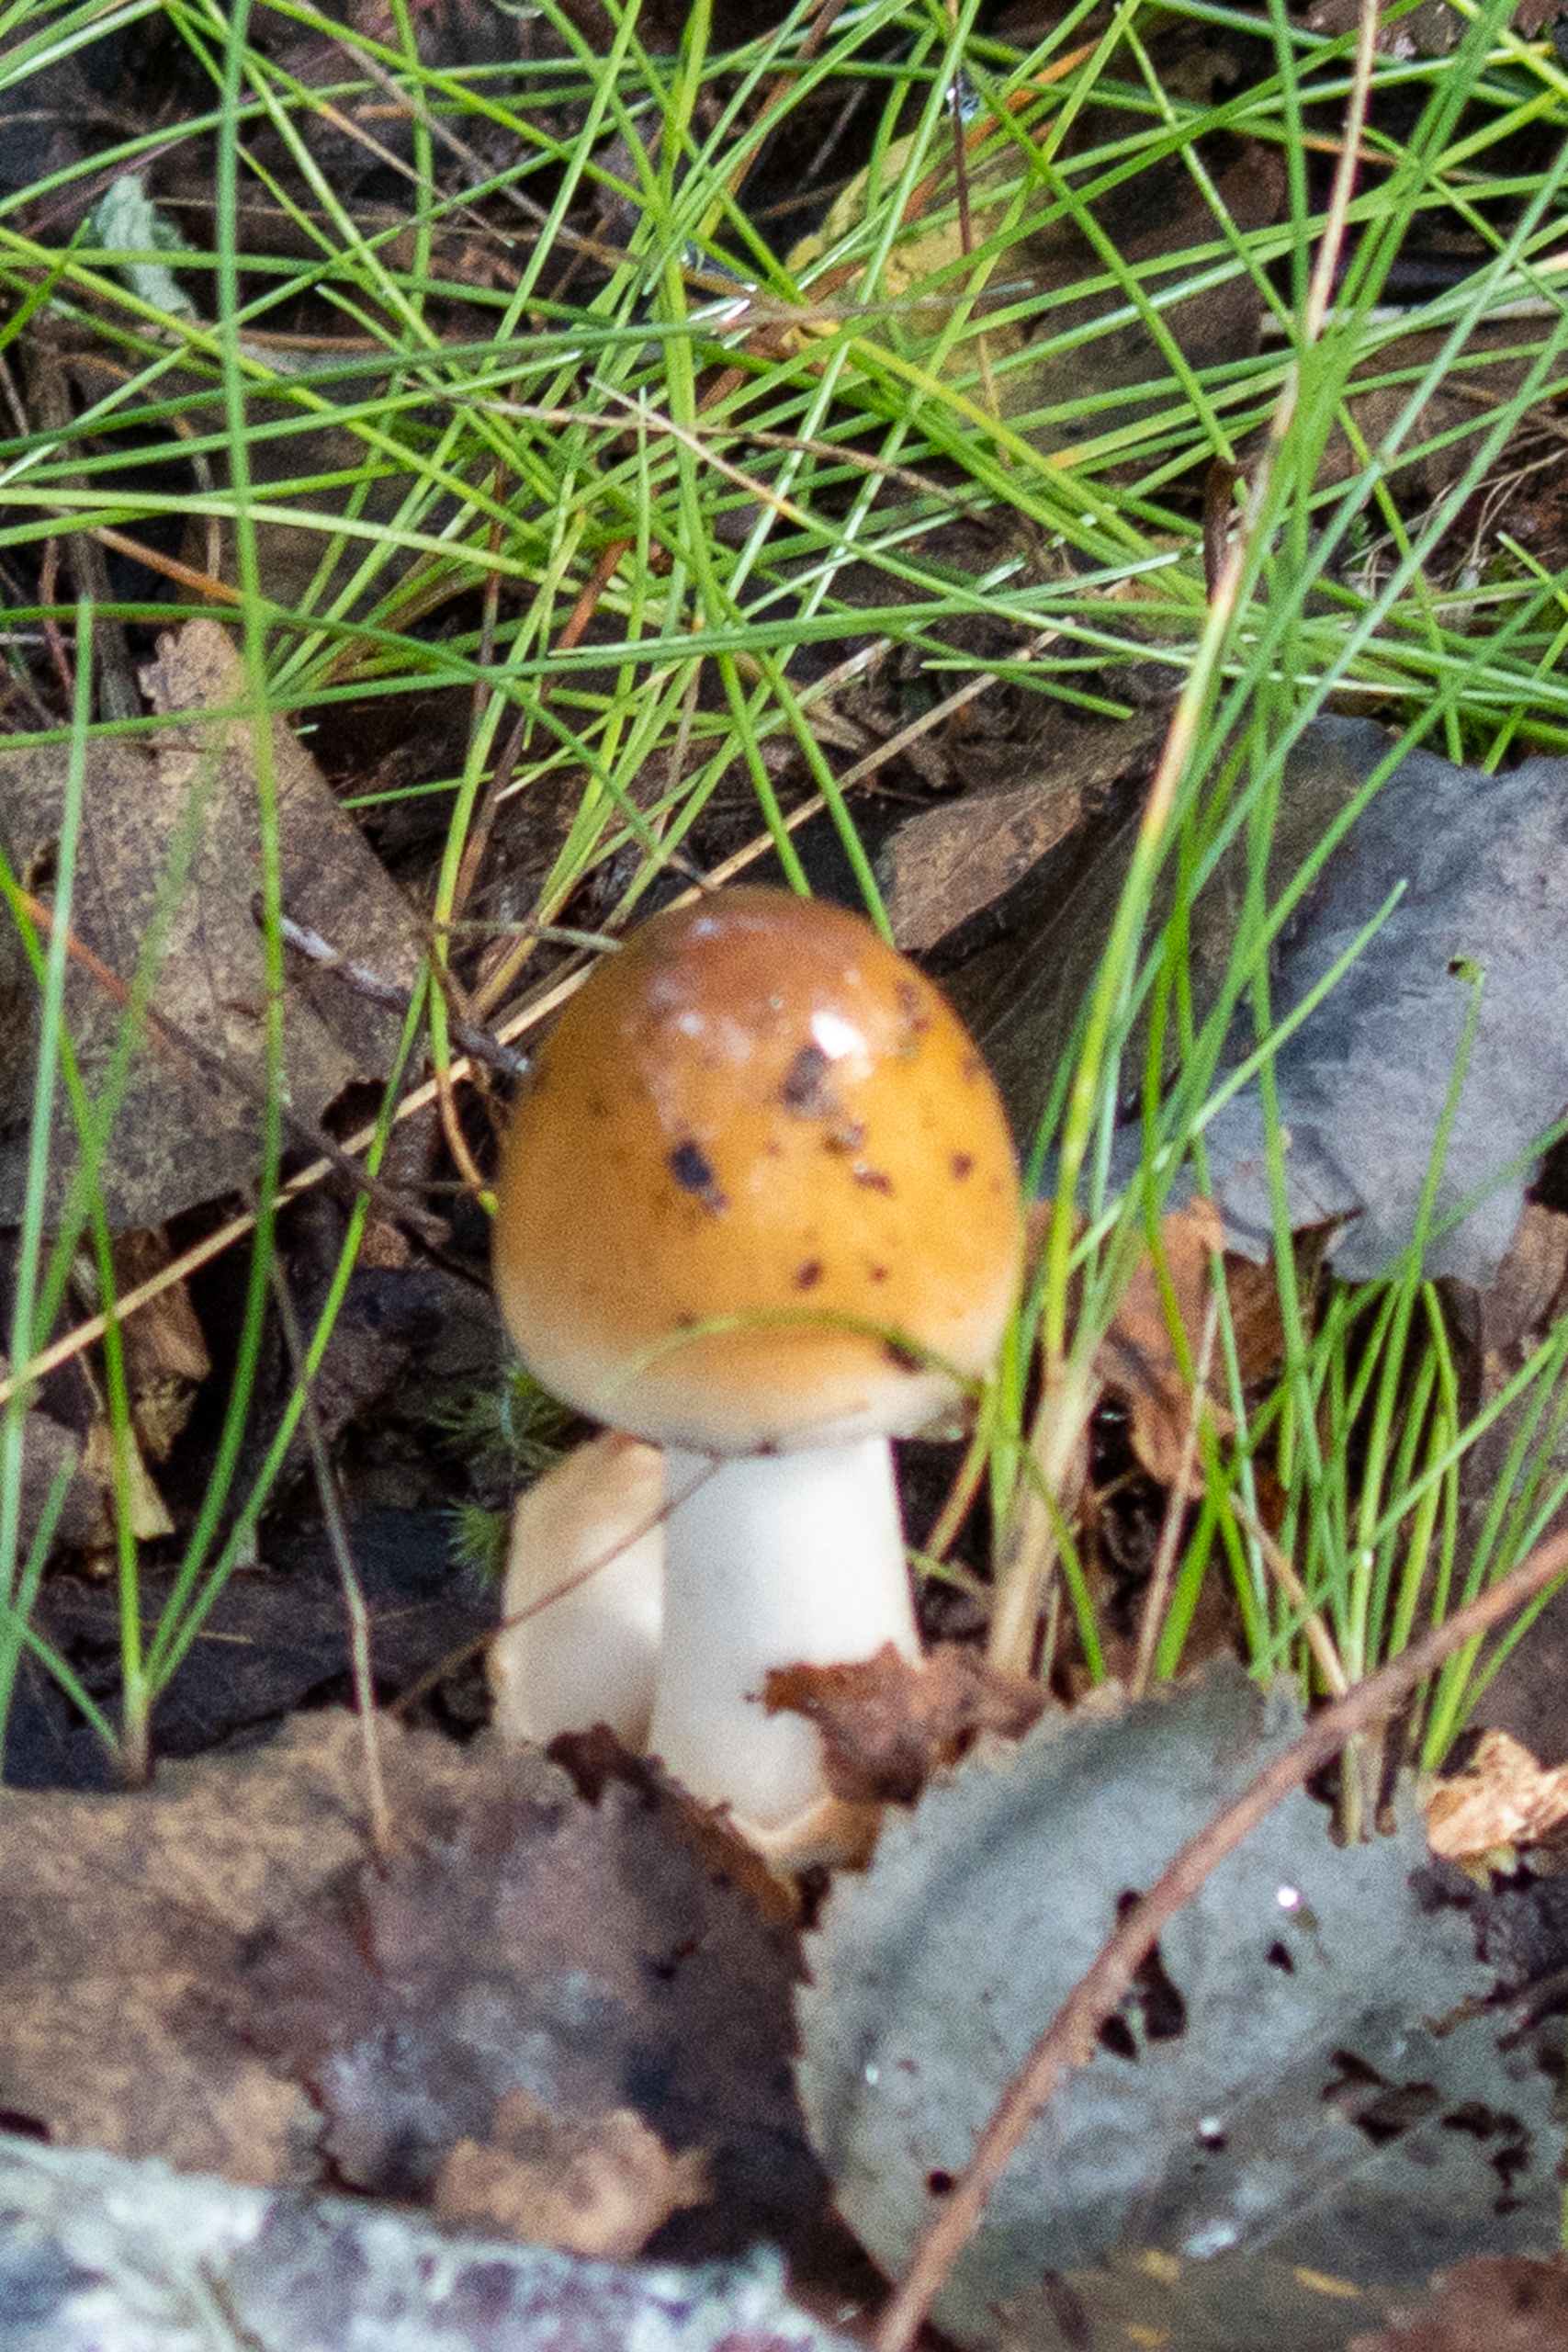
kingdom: Fungi
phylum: Basidiomycota
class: Agaricomycetes
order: Agaricales
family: Amanitaceae
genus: Amanita
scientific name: Amanita
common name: Fluesvamp
